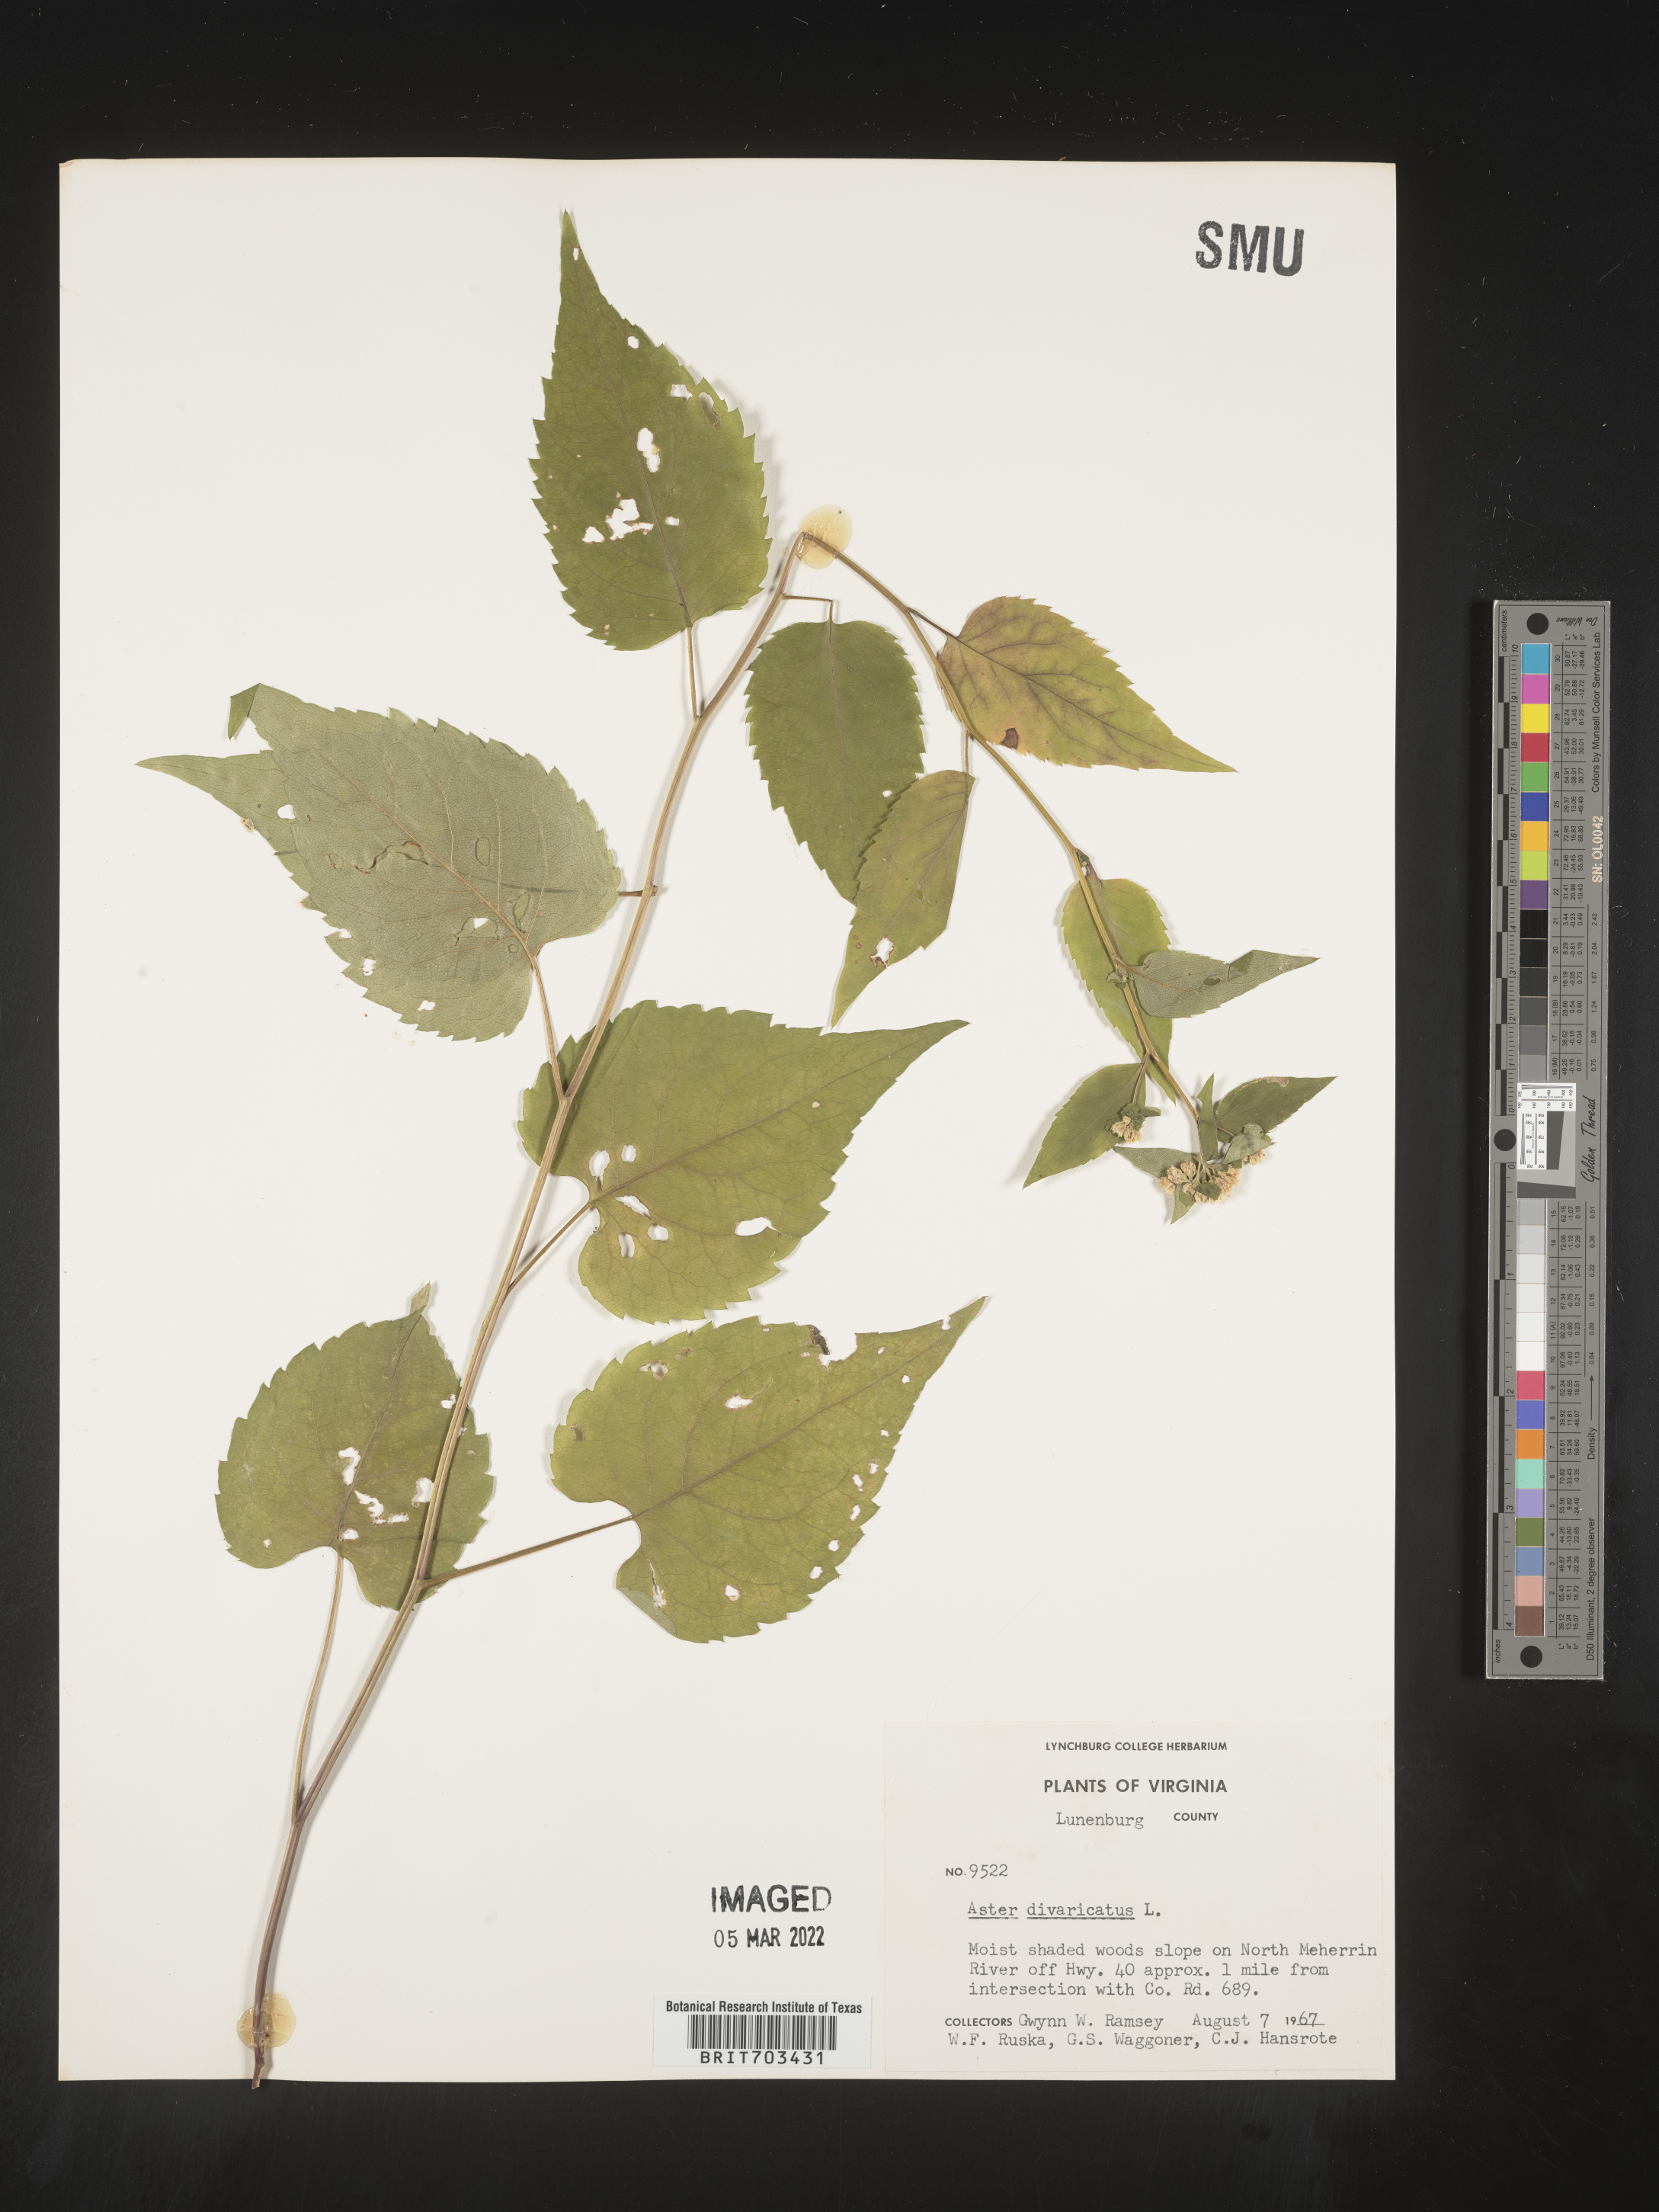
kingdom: Plantae
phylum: Tracheophyta
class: Magnoliopsida
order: Asterales
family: Asteraceae
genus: Eurybia
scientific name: Eurybia divaricata
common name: White wood aster
